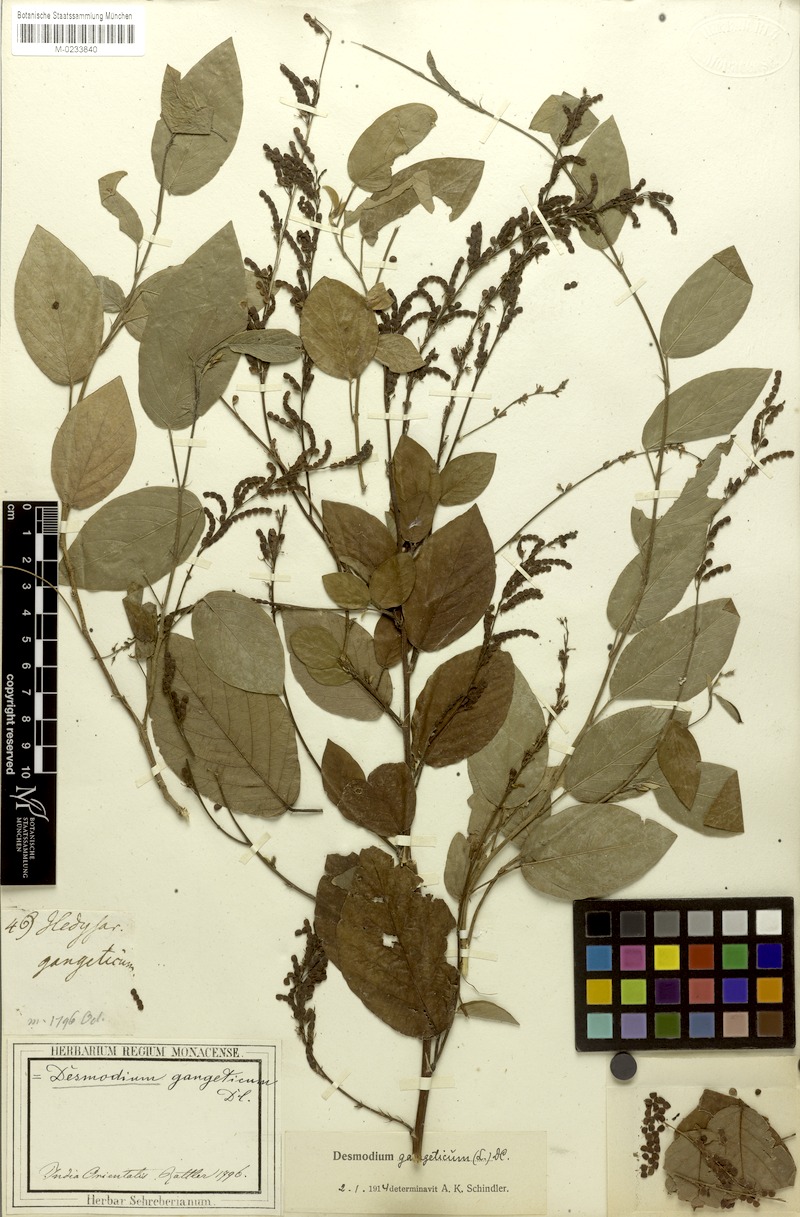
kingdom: Plantae
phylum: Tracheophyta
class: Magnoliopsida
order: Fabales
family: Fabaceae
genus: Pleurolobus
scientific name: Pleurolobus gangeticus
